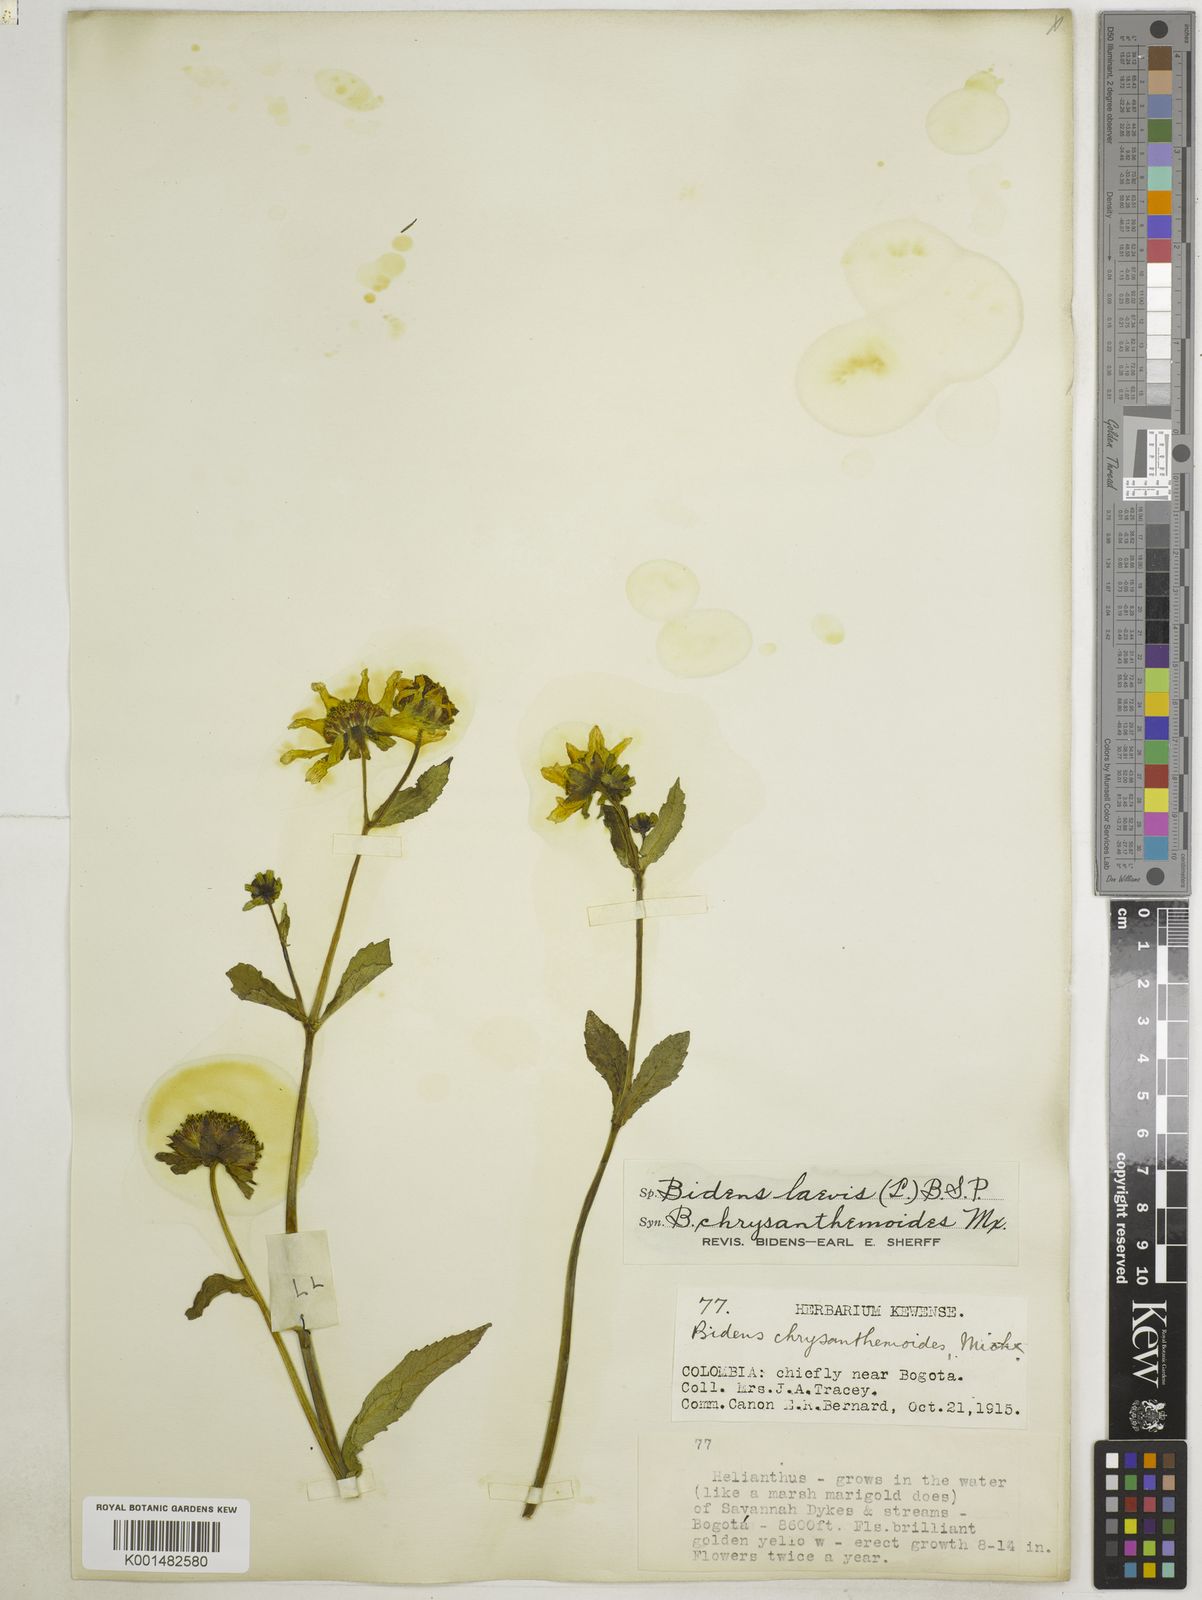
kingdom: Plantae
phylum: Tracheophyta
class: Magnoliopsida
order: Asterales
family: Asteraceae
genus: Bidens
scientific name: Bidens laevis
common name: Larger bur-marigold
